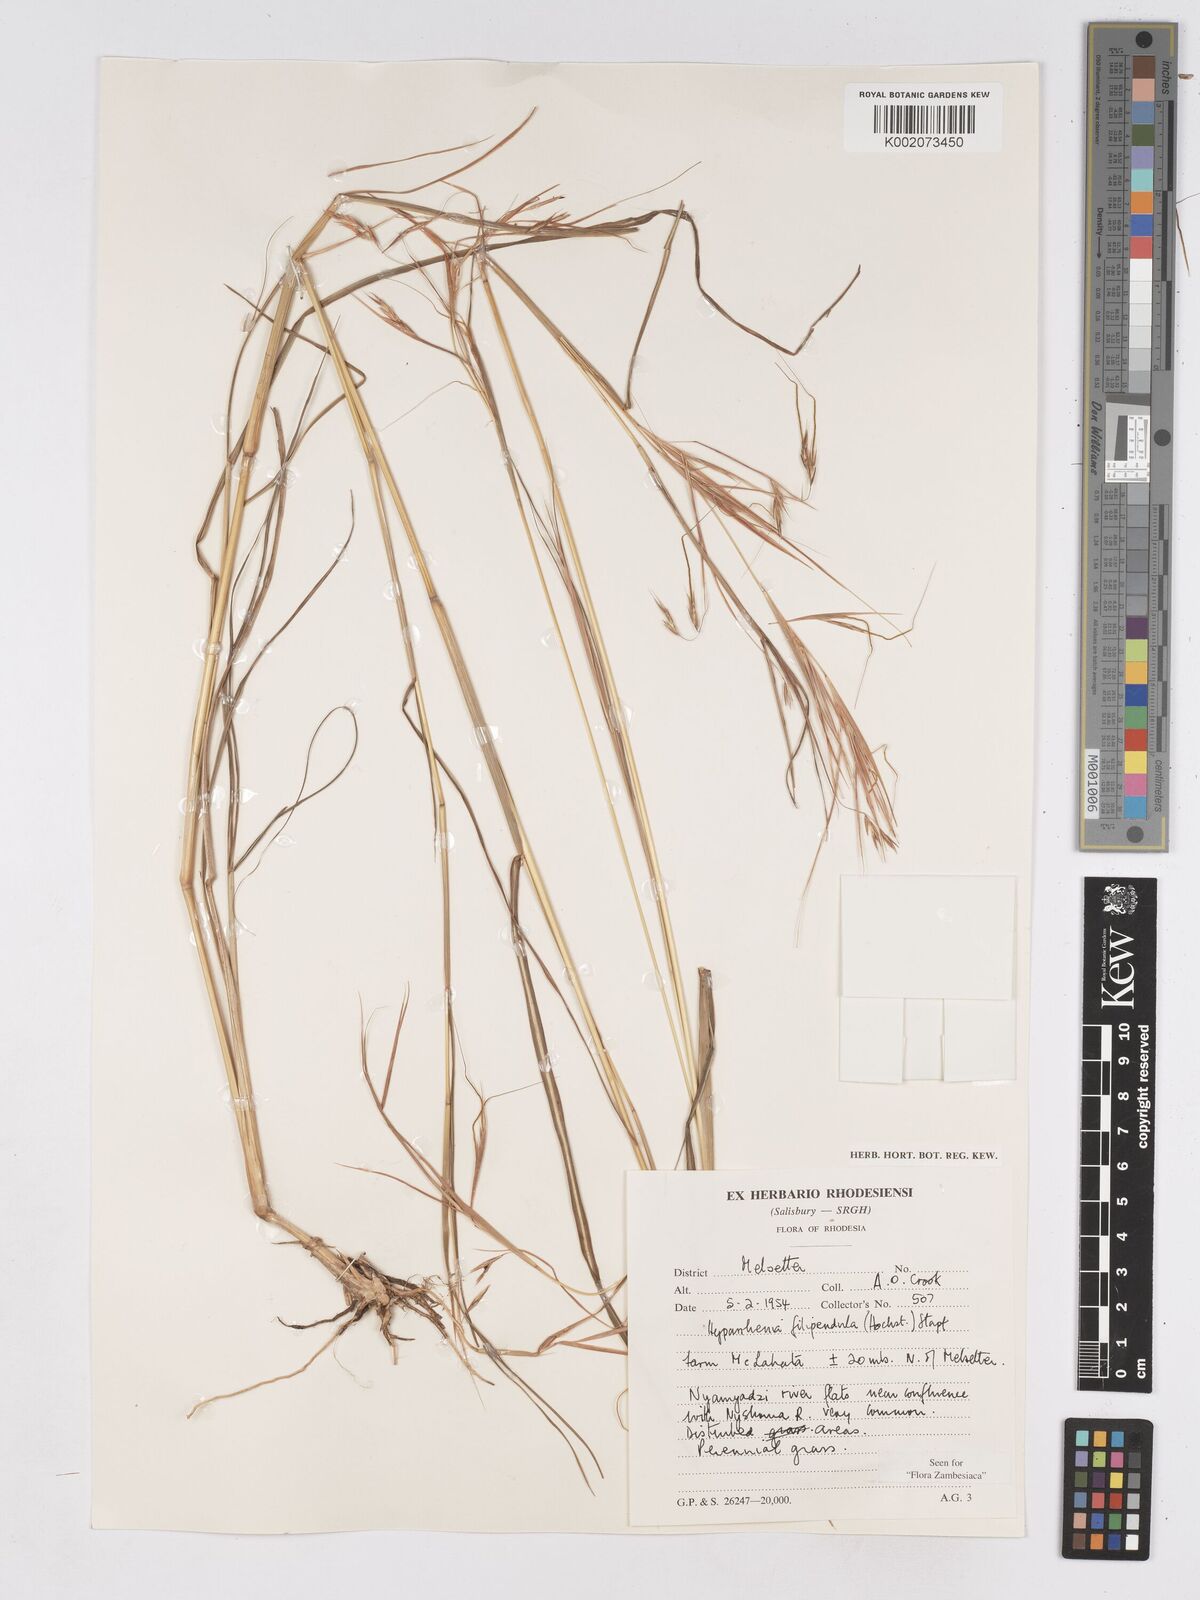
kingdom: Plantae
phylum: Tracheophyta
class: Liliopsida
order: Poales
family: Poaceae
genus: Hyparrhenia
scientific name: Hyparrhenia filipendula
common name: Tambookie grass
